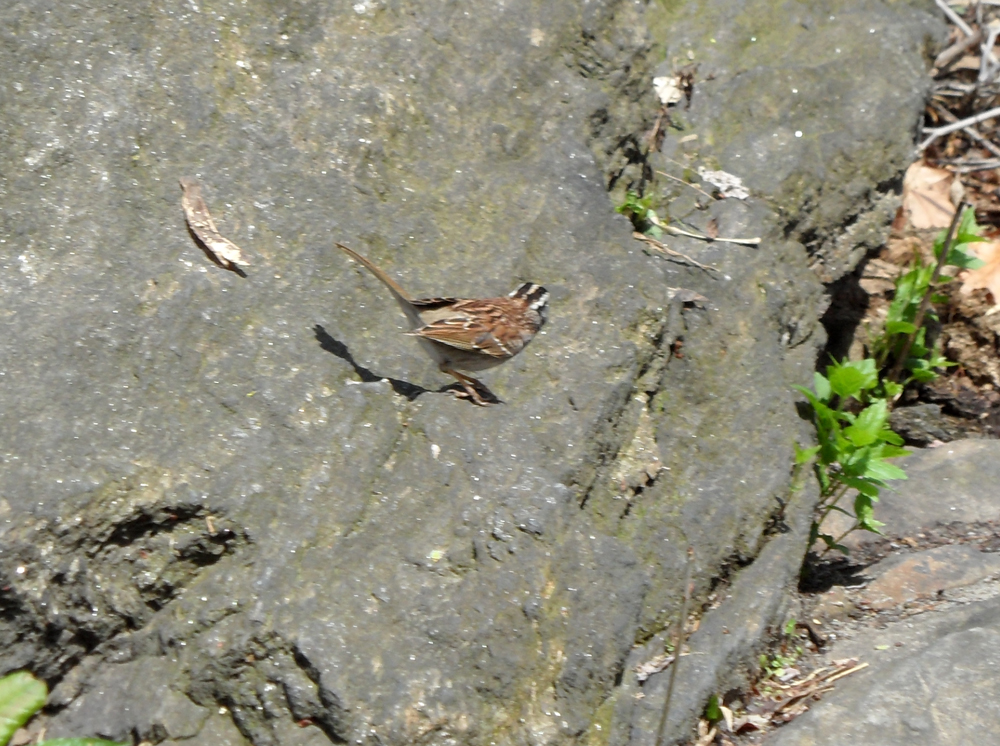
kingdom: Animalia
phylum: Chordata
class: Aves
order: Passeriformes
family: Passerellidae
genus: Zonotrichia
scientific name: Zonotrichia albicollis
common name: White-throated sparrow
